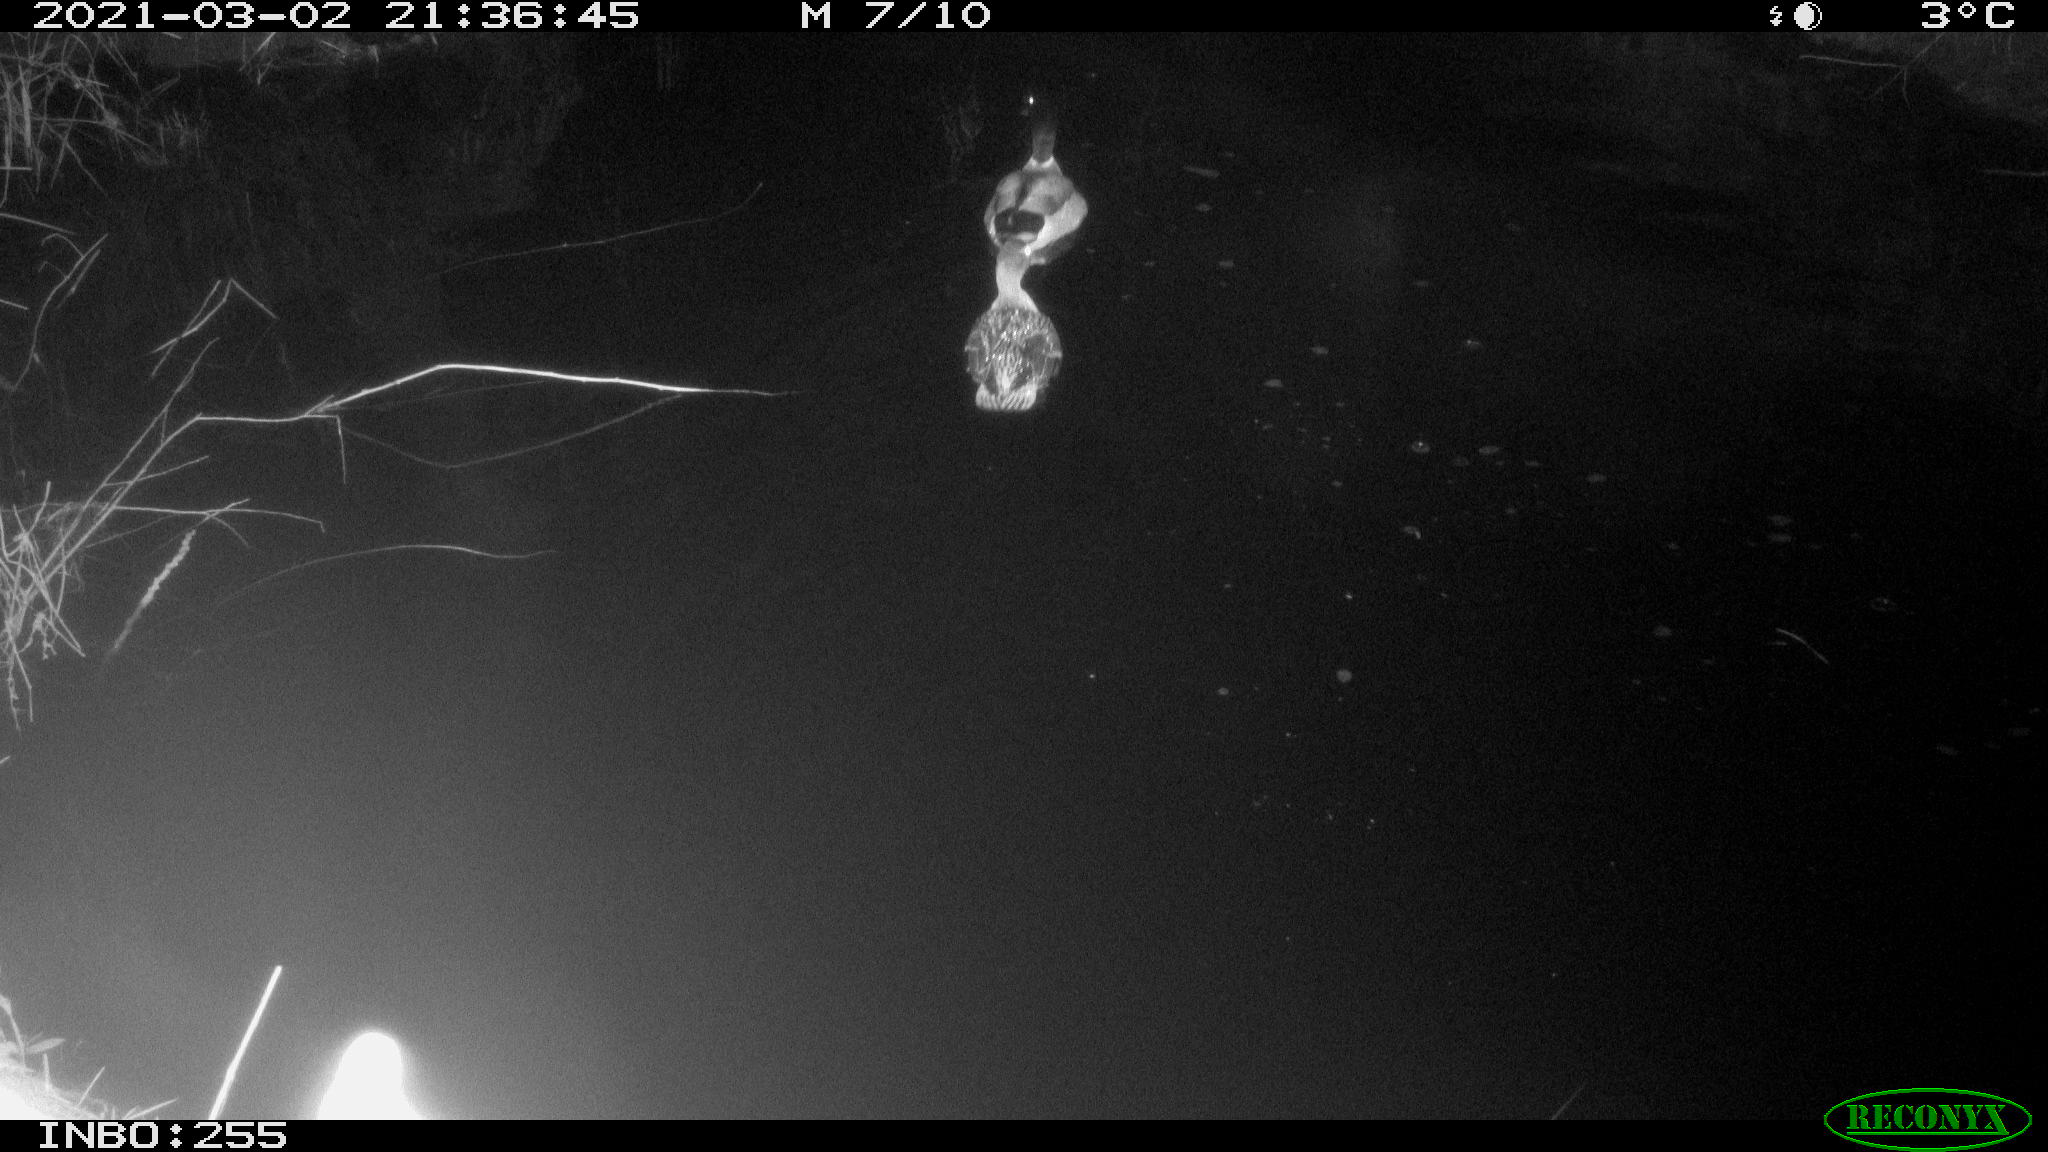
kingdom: Animalia
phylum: Chordata
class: Aves
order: Anseriformes
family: Anatidae
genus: Anas
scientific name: Anas platyrhynchos
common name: Mallard
